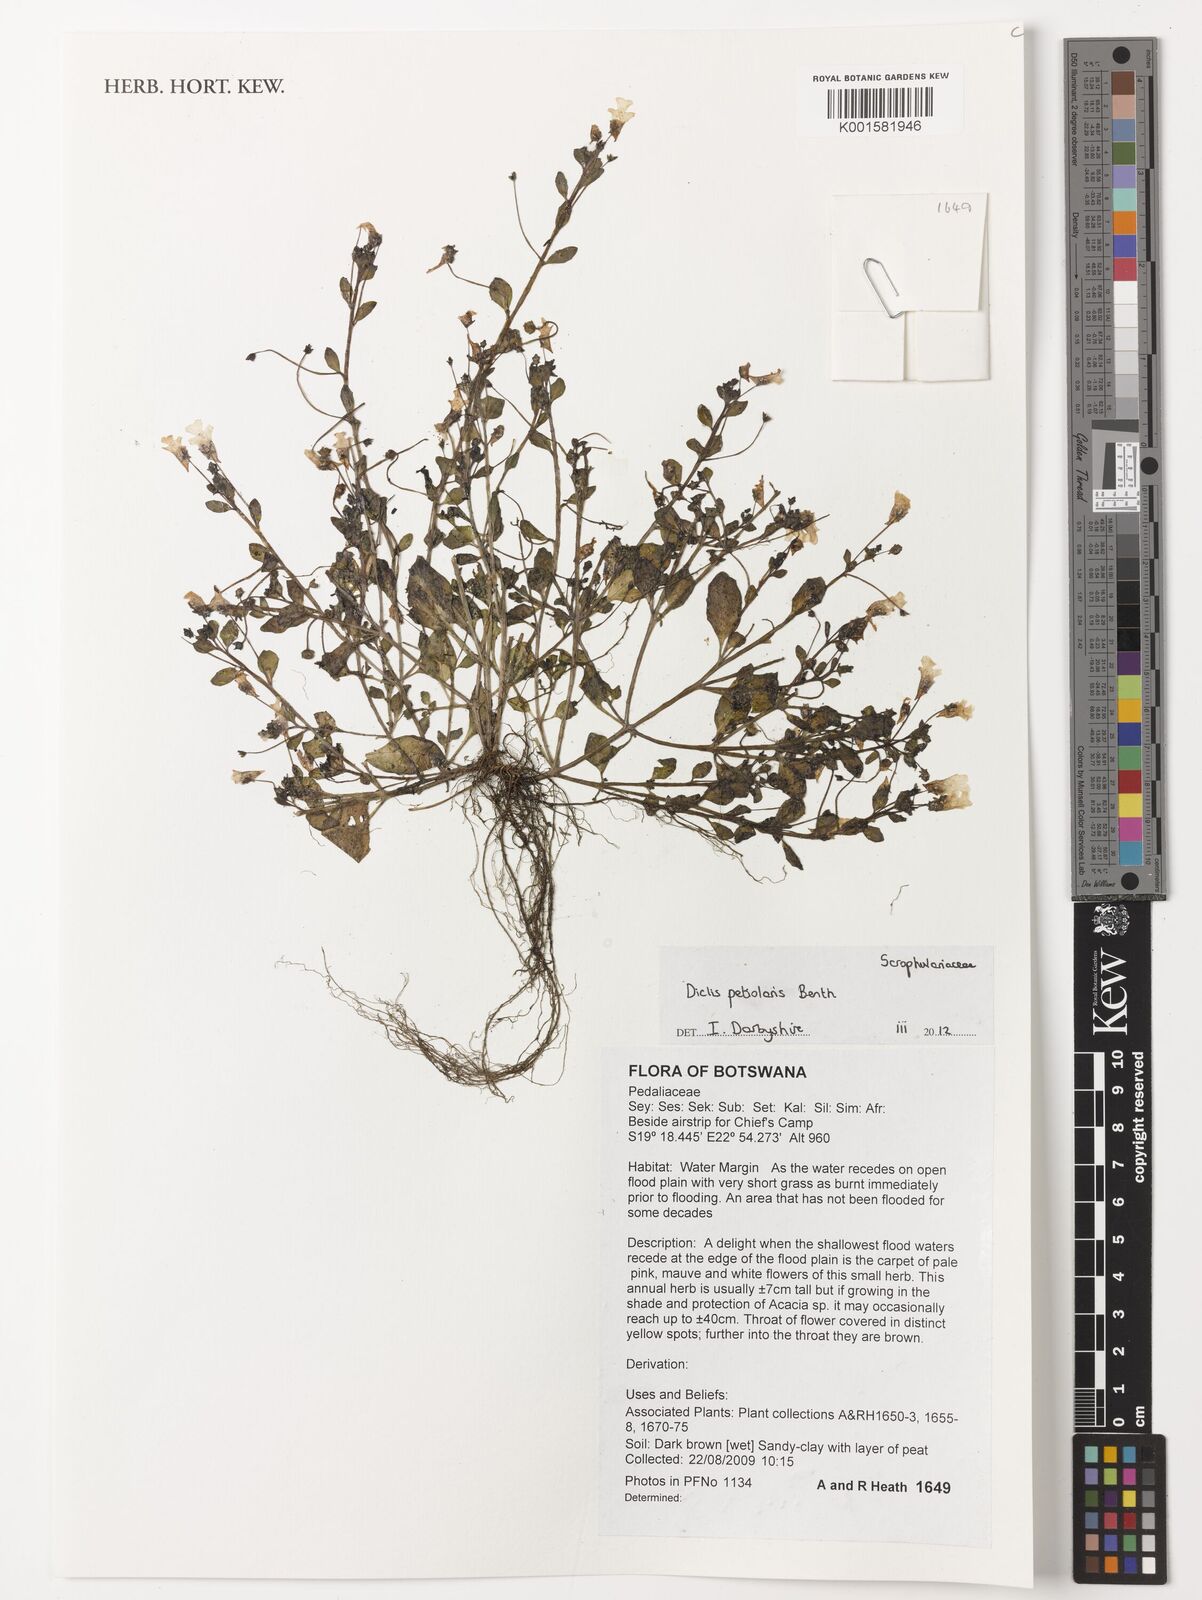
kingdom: Plantae
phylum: Tracheophyta
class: Magnoliopsida
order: Lamiales
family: Scrophulariaceae
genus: Diclis
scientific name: Diclis petiolaris
